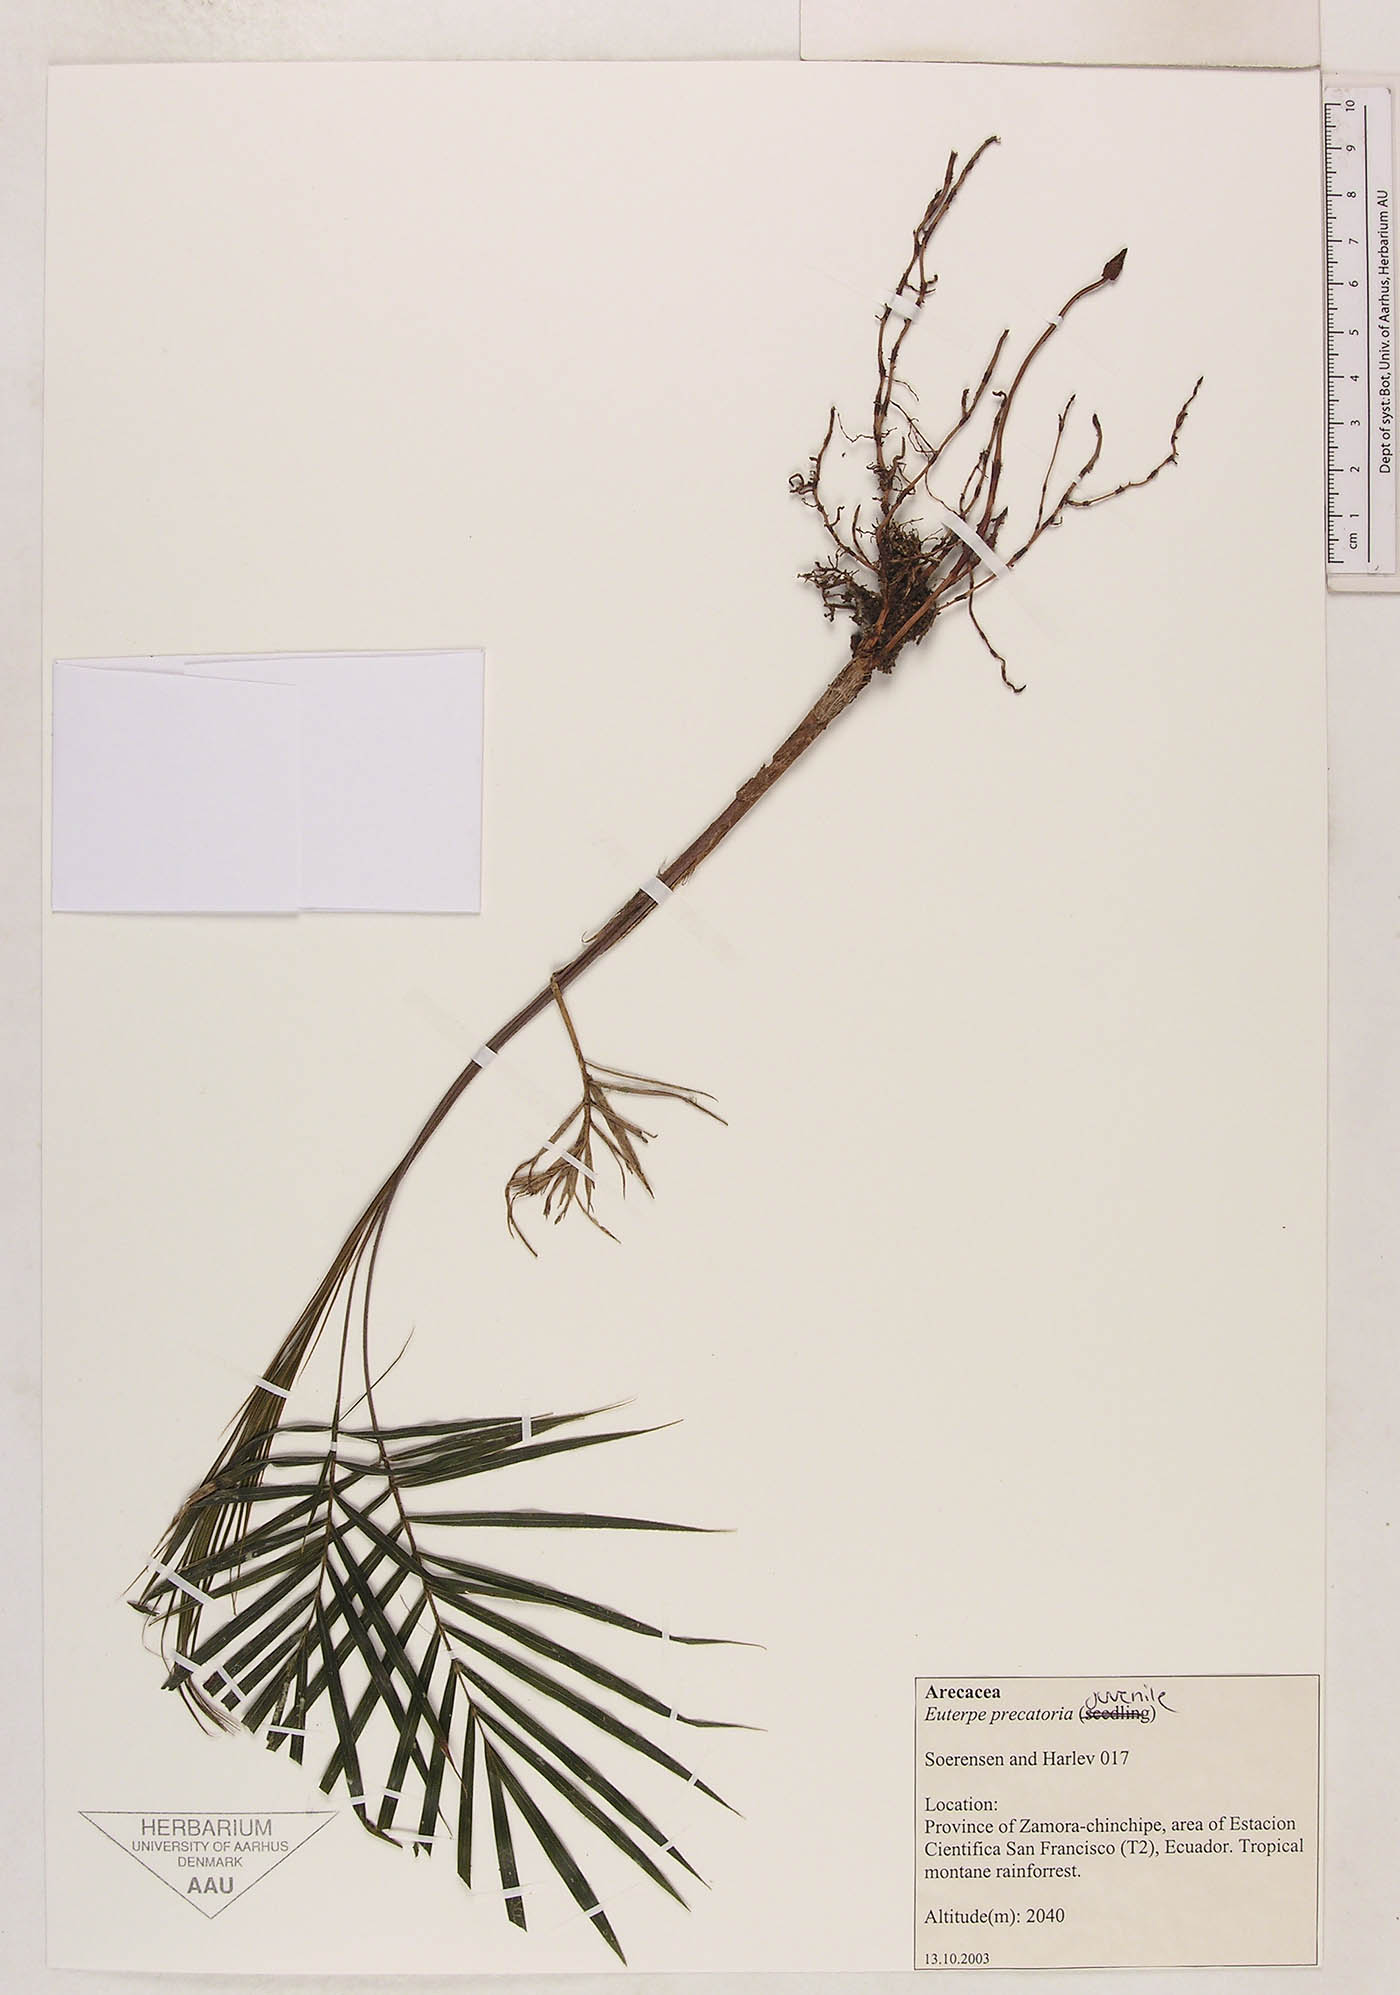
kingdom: Plantae
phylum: Tracheophyta
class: Liliopsida
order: Arecales
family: Arecaceae
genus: Euterpe
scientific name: Euterpe precatoria
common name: Mountain-cabbage
